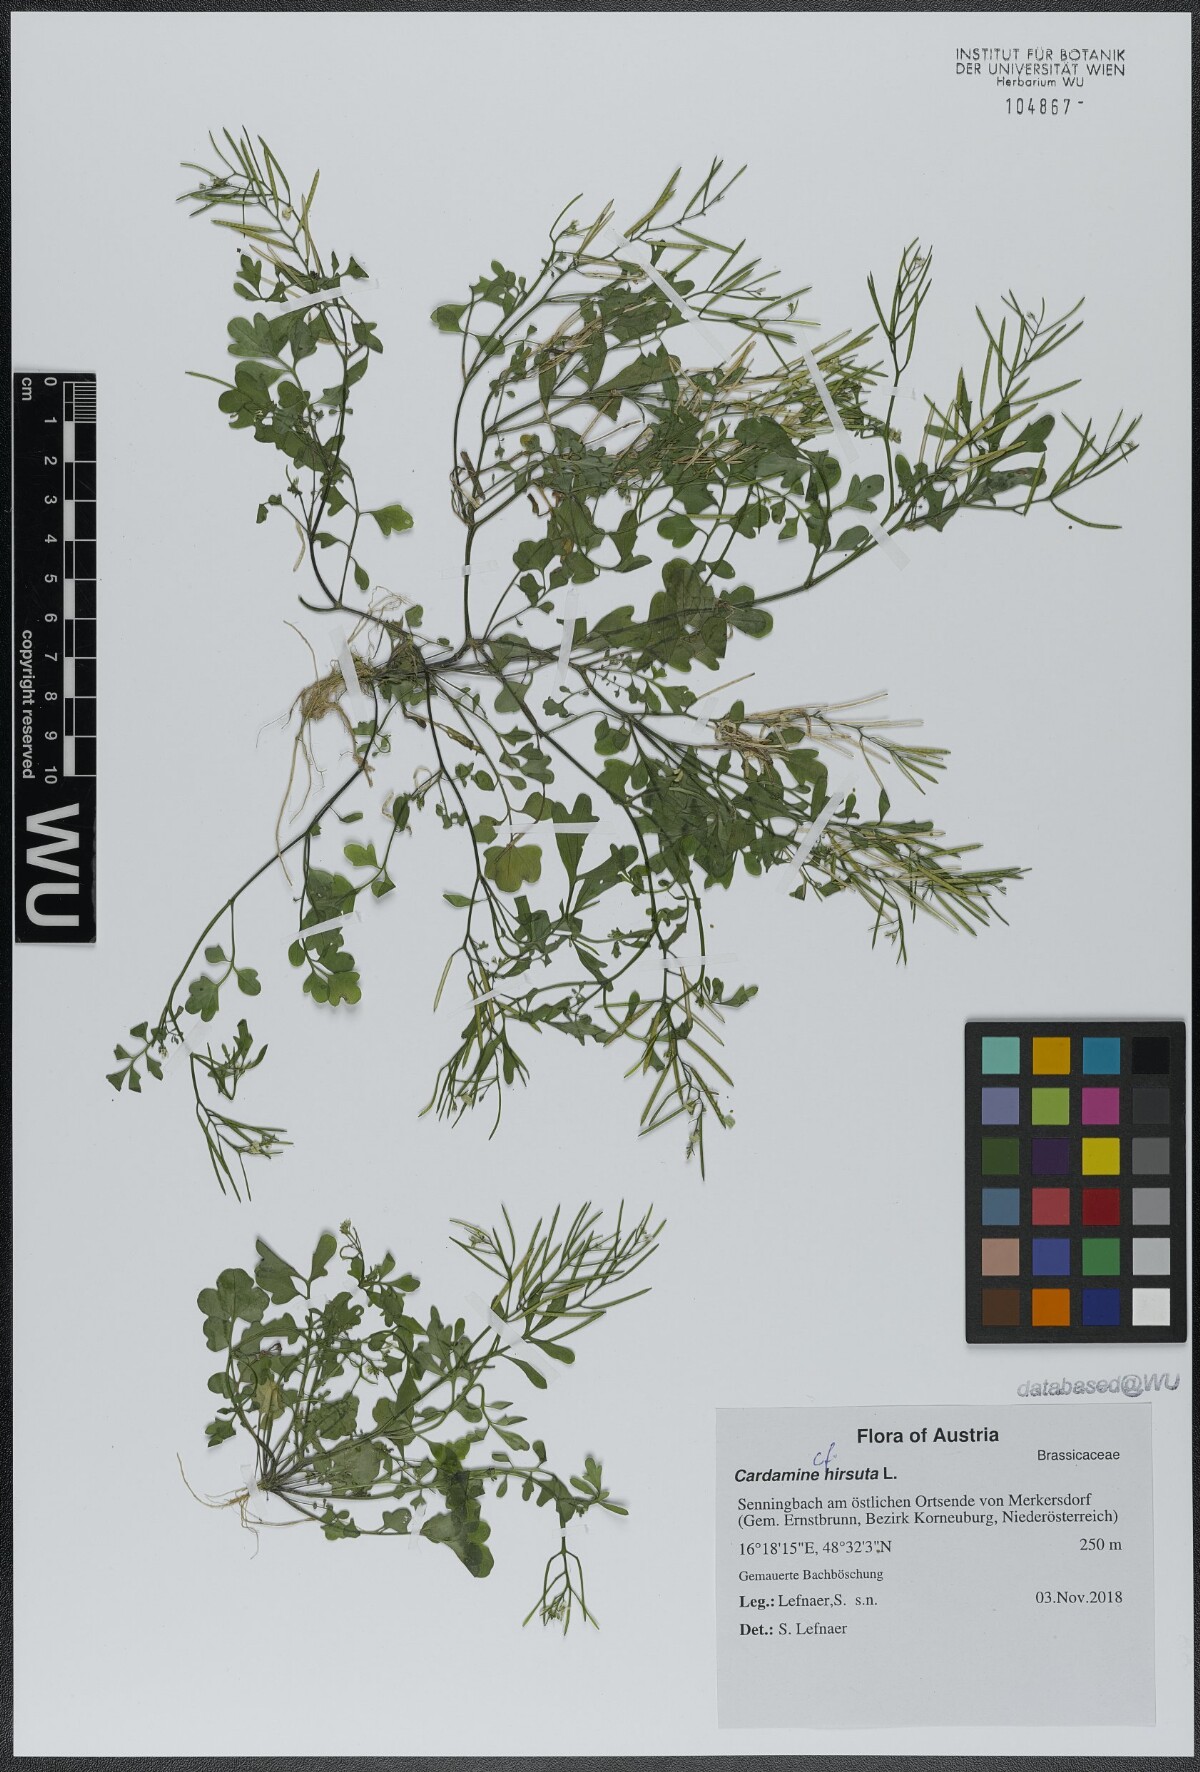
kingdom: Plantae
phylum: Tracheophyta
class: Magnoliopsida
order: Brassicales
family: Brassicaceae
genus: Cardamine
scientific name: Cardamine hirsuta
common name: Hairy bittercress
